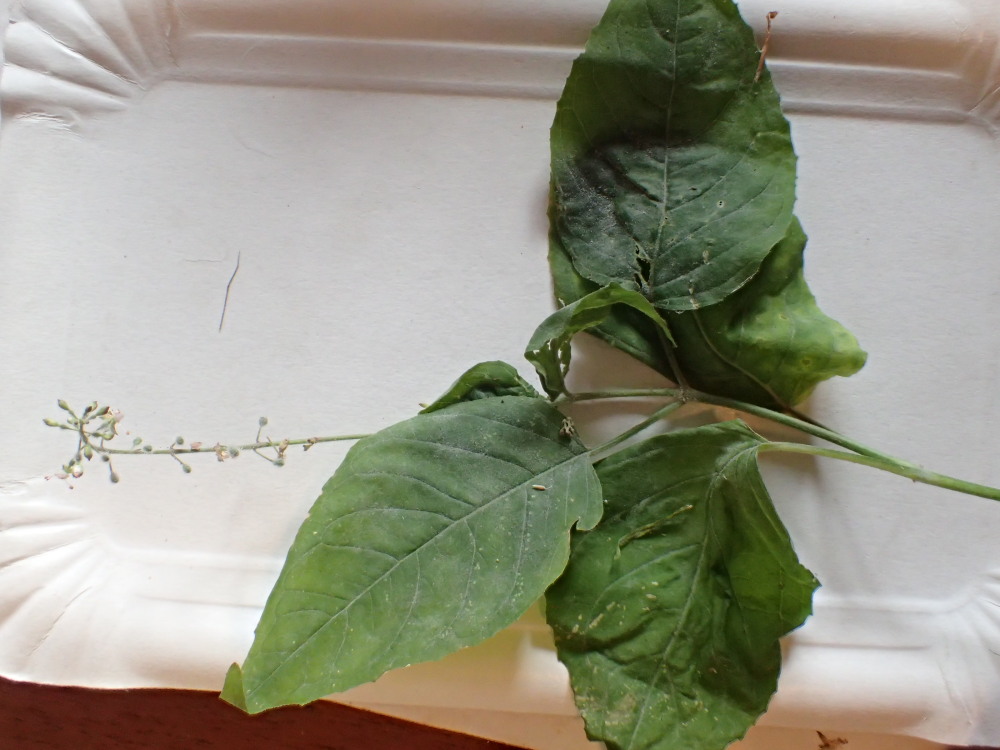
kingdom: Fungi
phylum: Ascomycota
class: Leotiomycetes
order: Helotiales
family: Erysiphaceae
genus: Erysiphe
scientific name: Erysiphe circaeae
